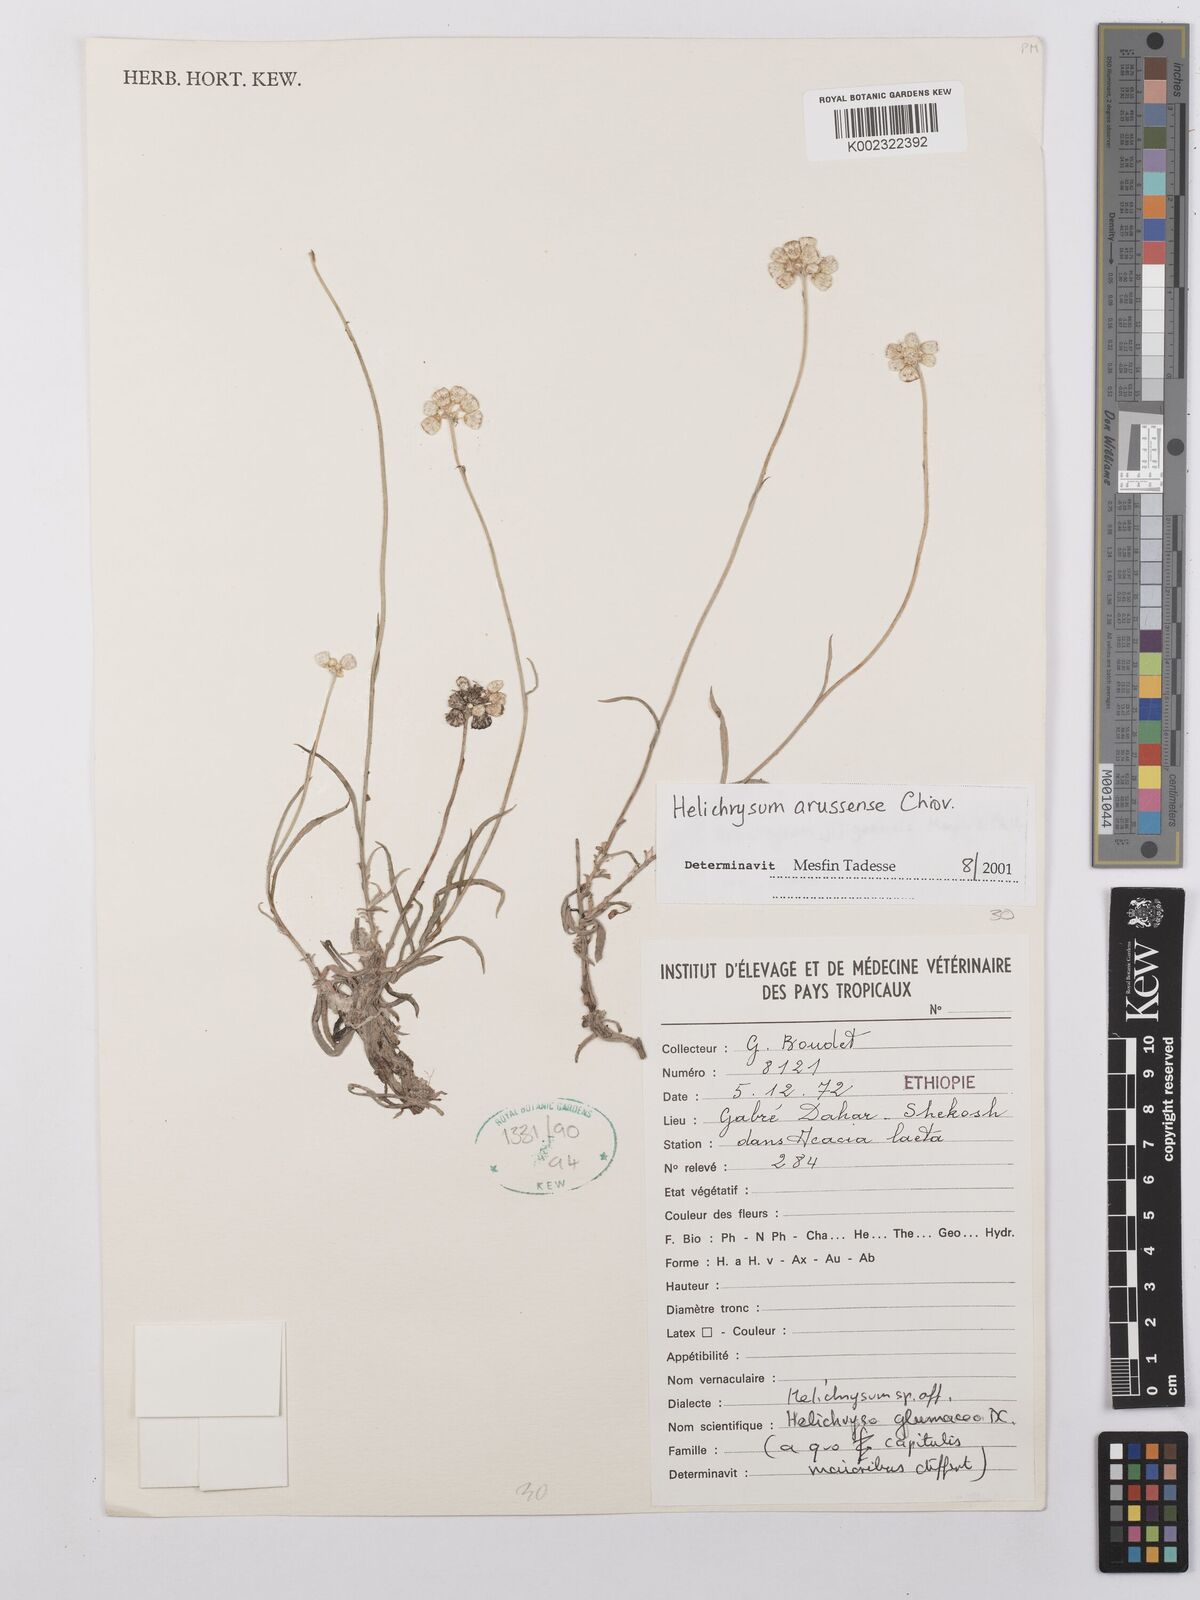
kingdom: Plantae
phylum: Tracheophyta
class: Magnoliopsida
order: Asterales
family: Asteraceae
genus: Helichrysum
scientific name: Helichrysum arussense
